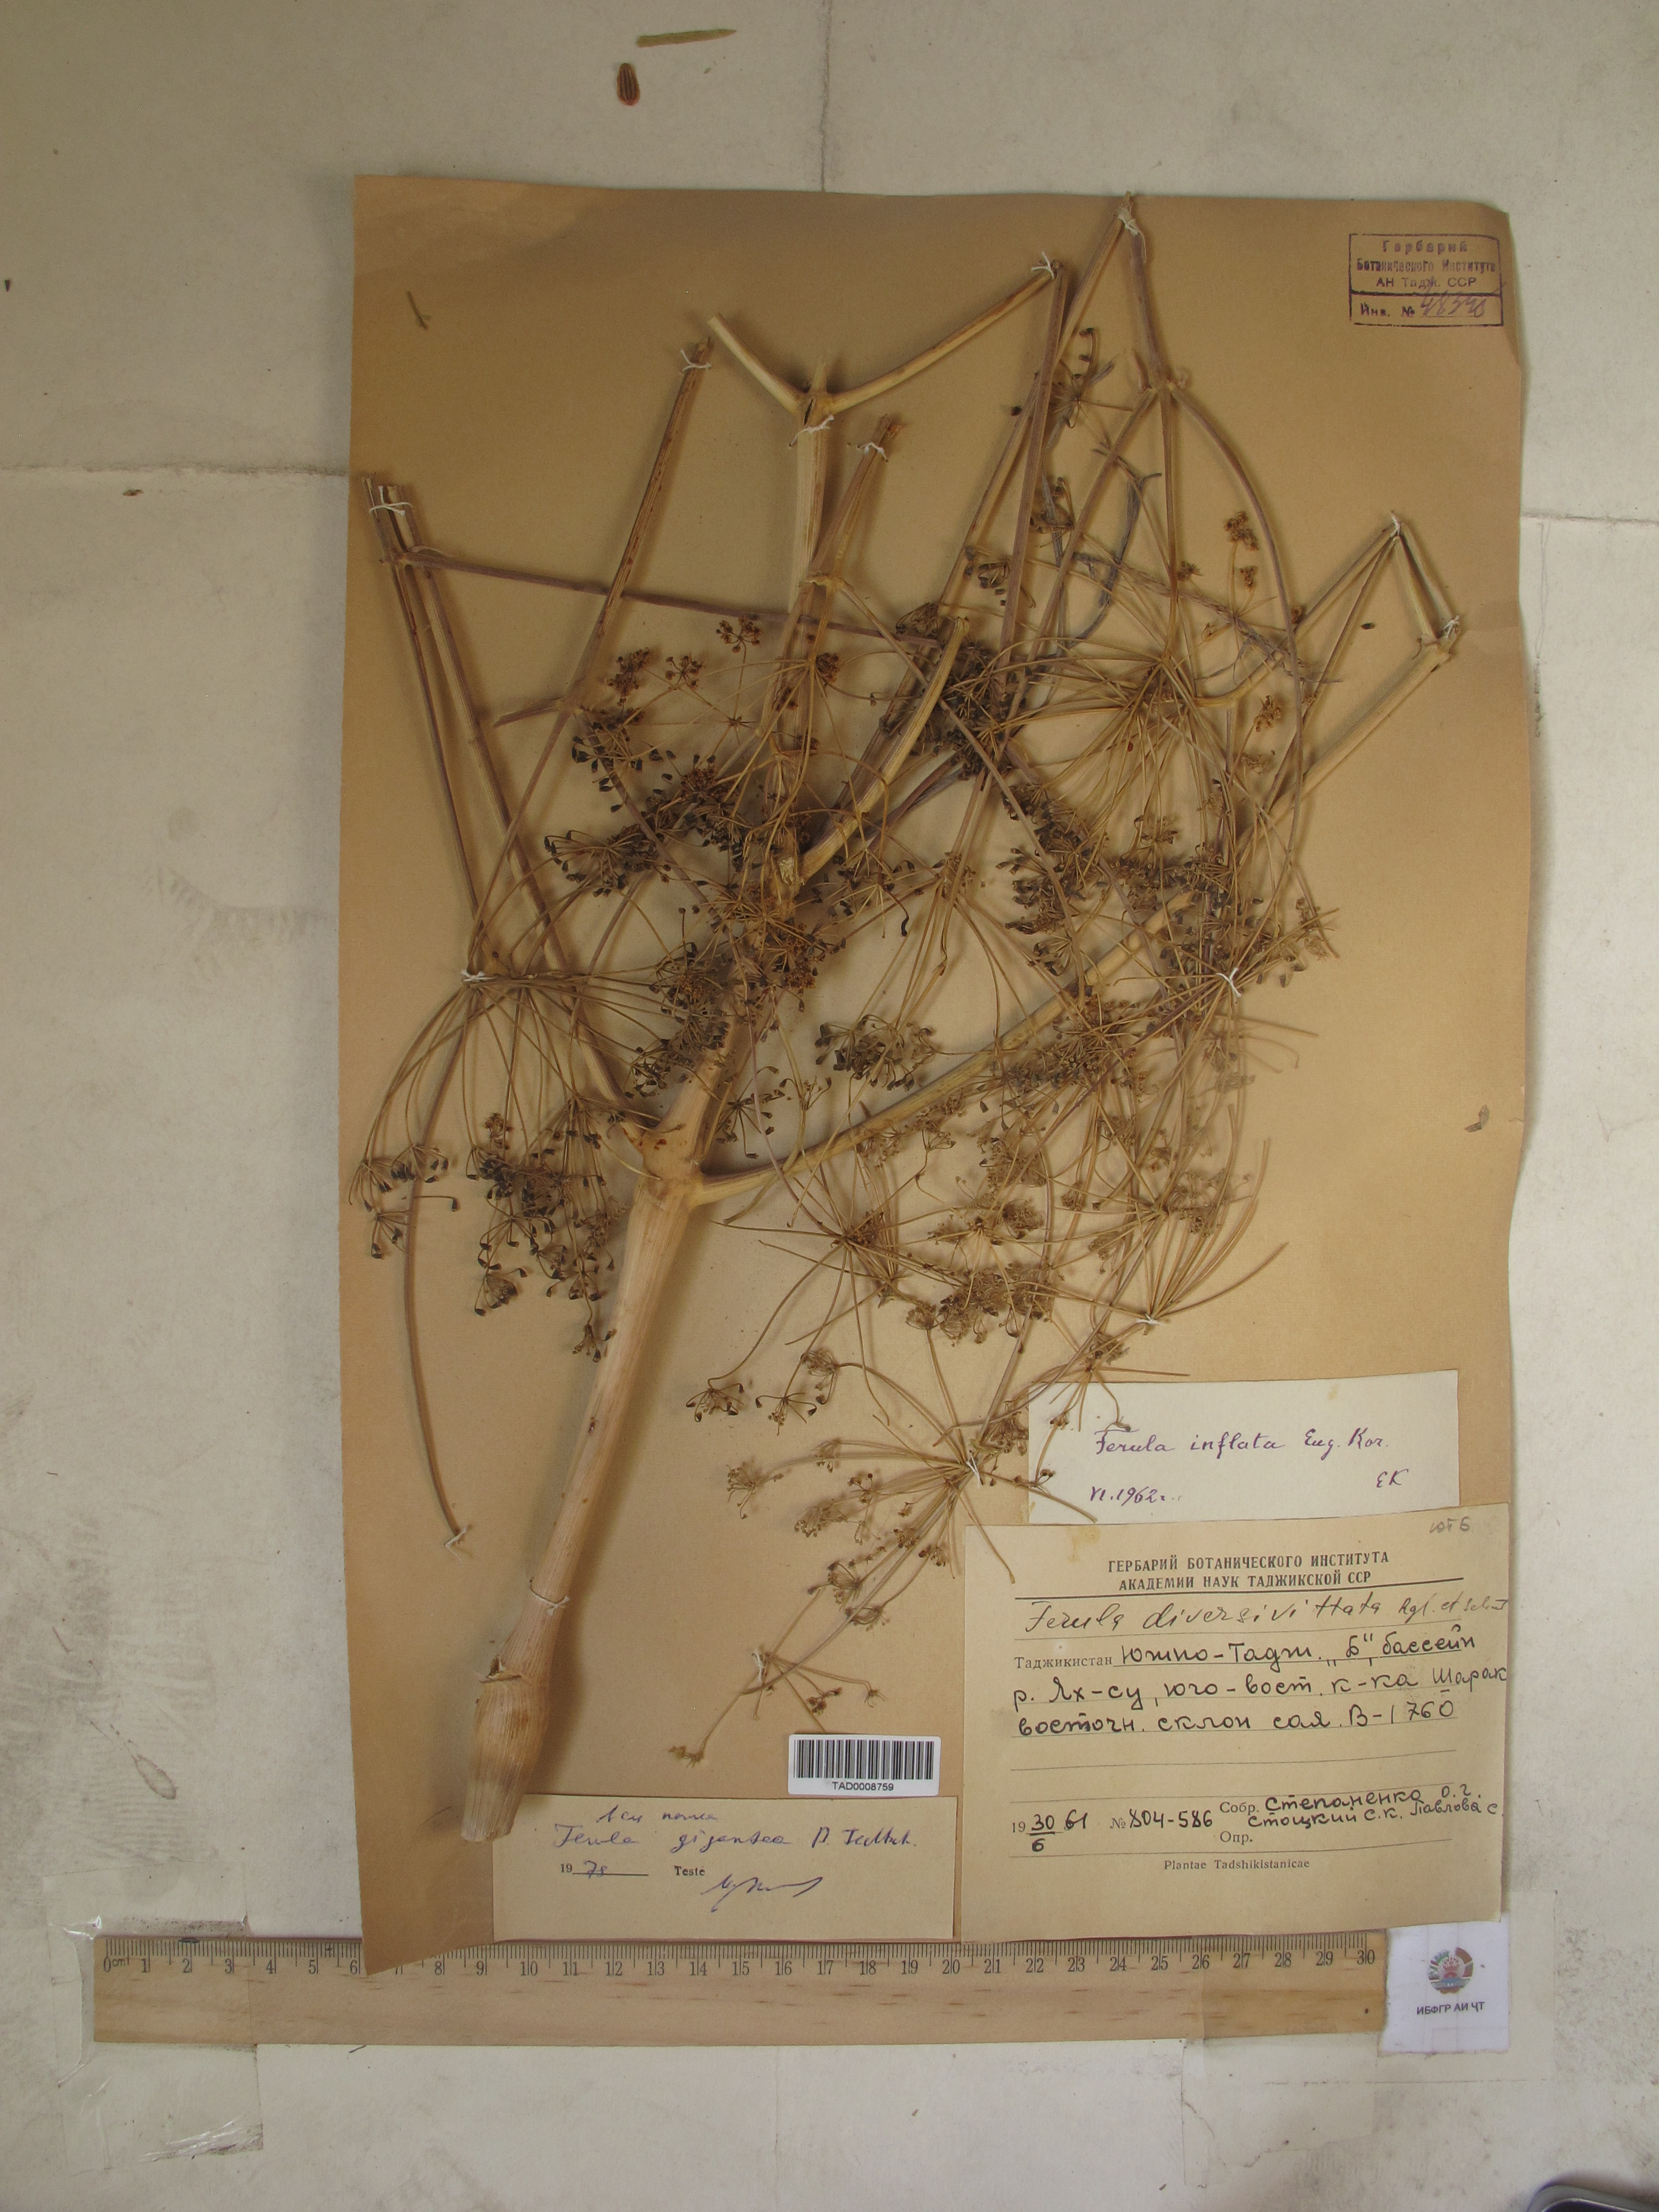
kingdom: Plantae
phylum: Tracheophyta
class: Magnoliopsida
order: Apiales
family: Apiaceae
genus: Ferula
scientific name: Ferula gigantea
